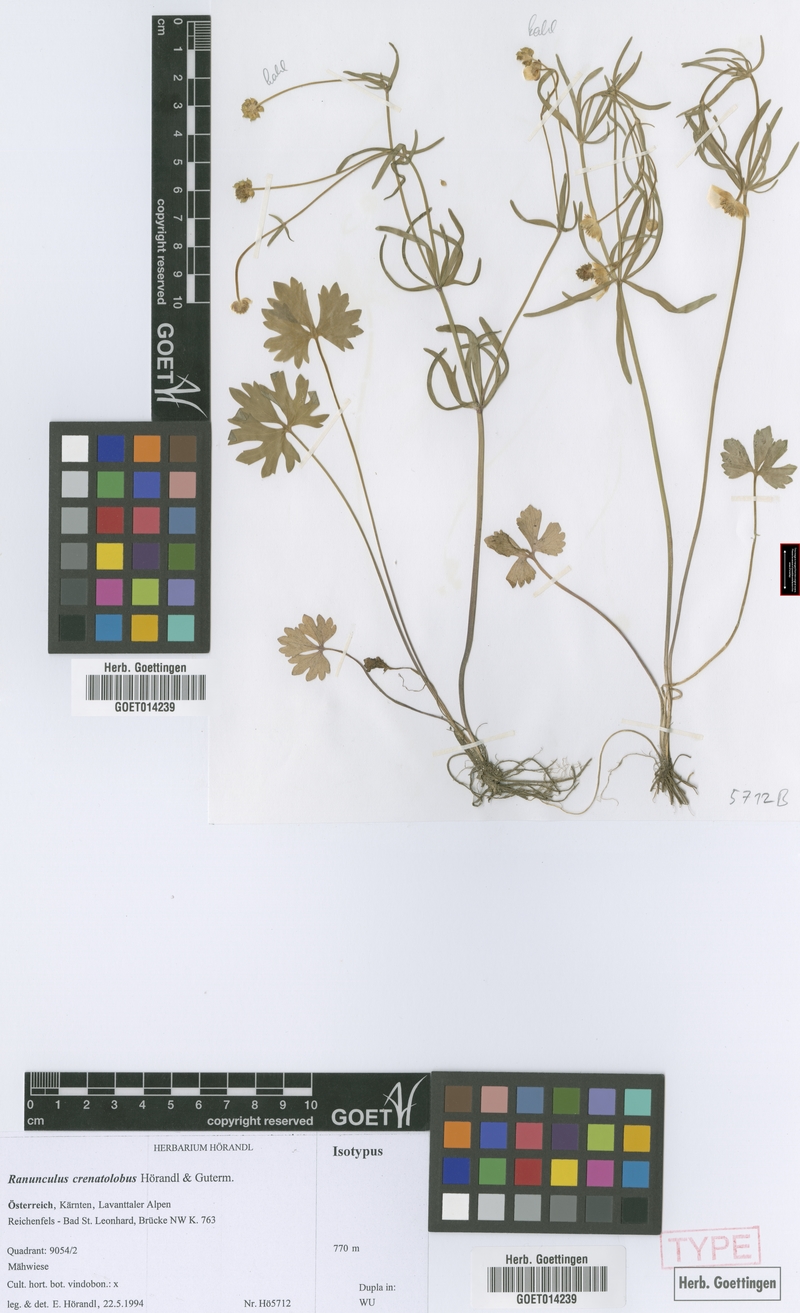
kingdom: Plantae
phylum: Tracheophyta
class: Magnoliopsida
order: Ranunculales
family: Ranunculaceae
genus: Ranunculus
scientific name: Ranunculus crenatolobus
